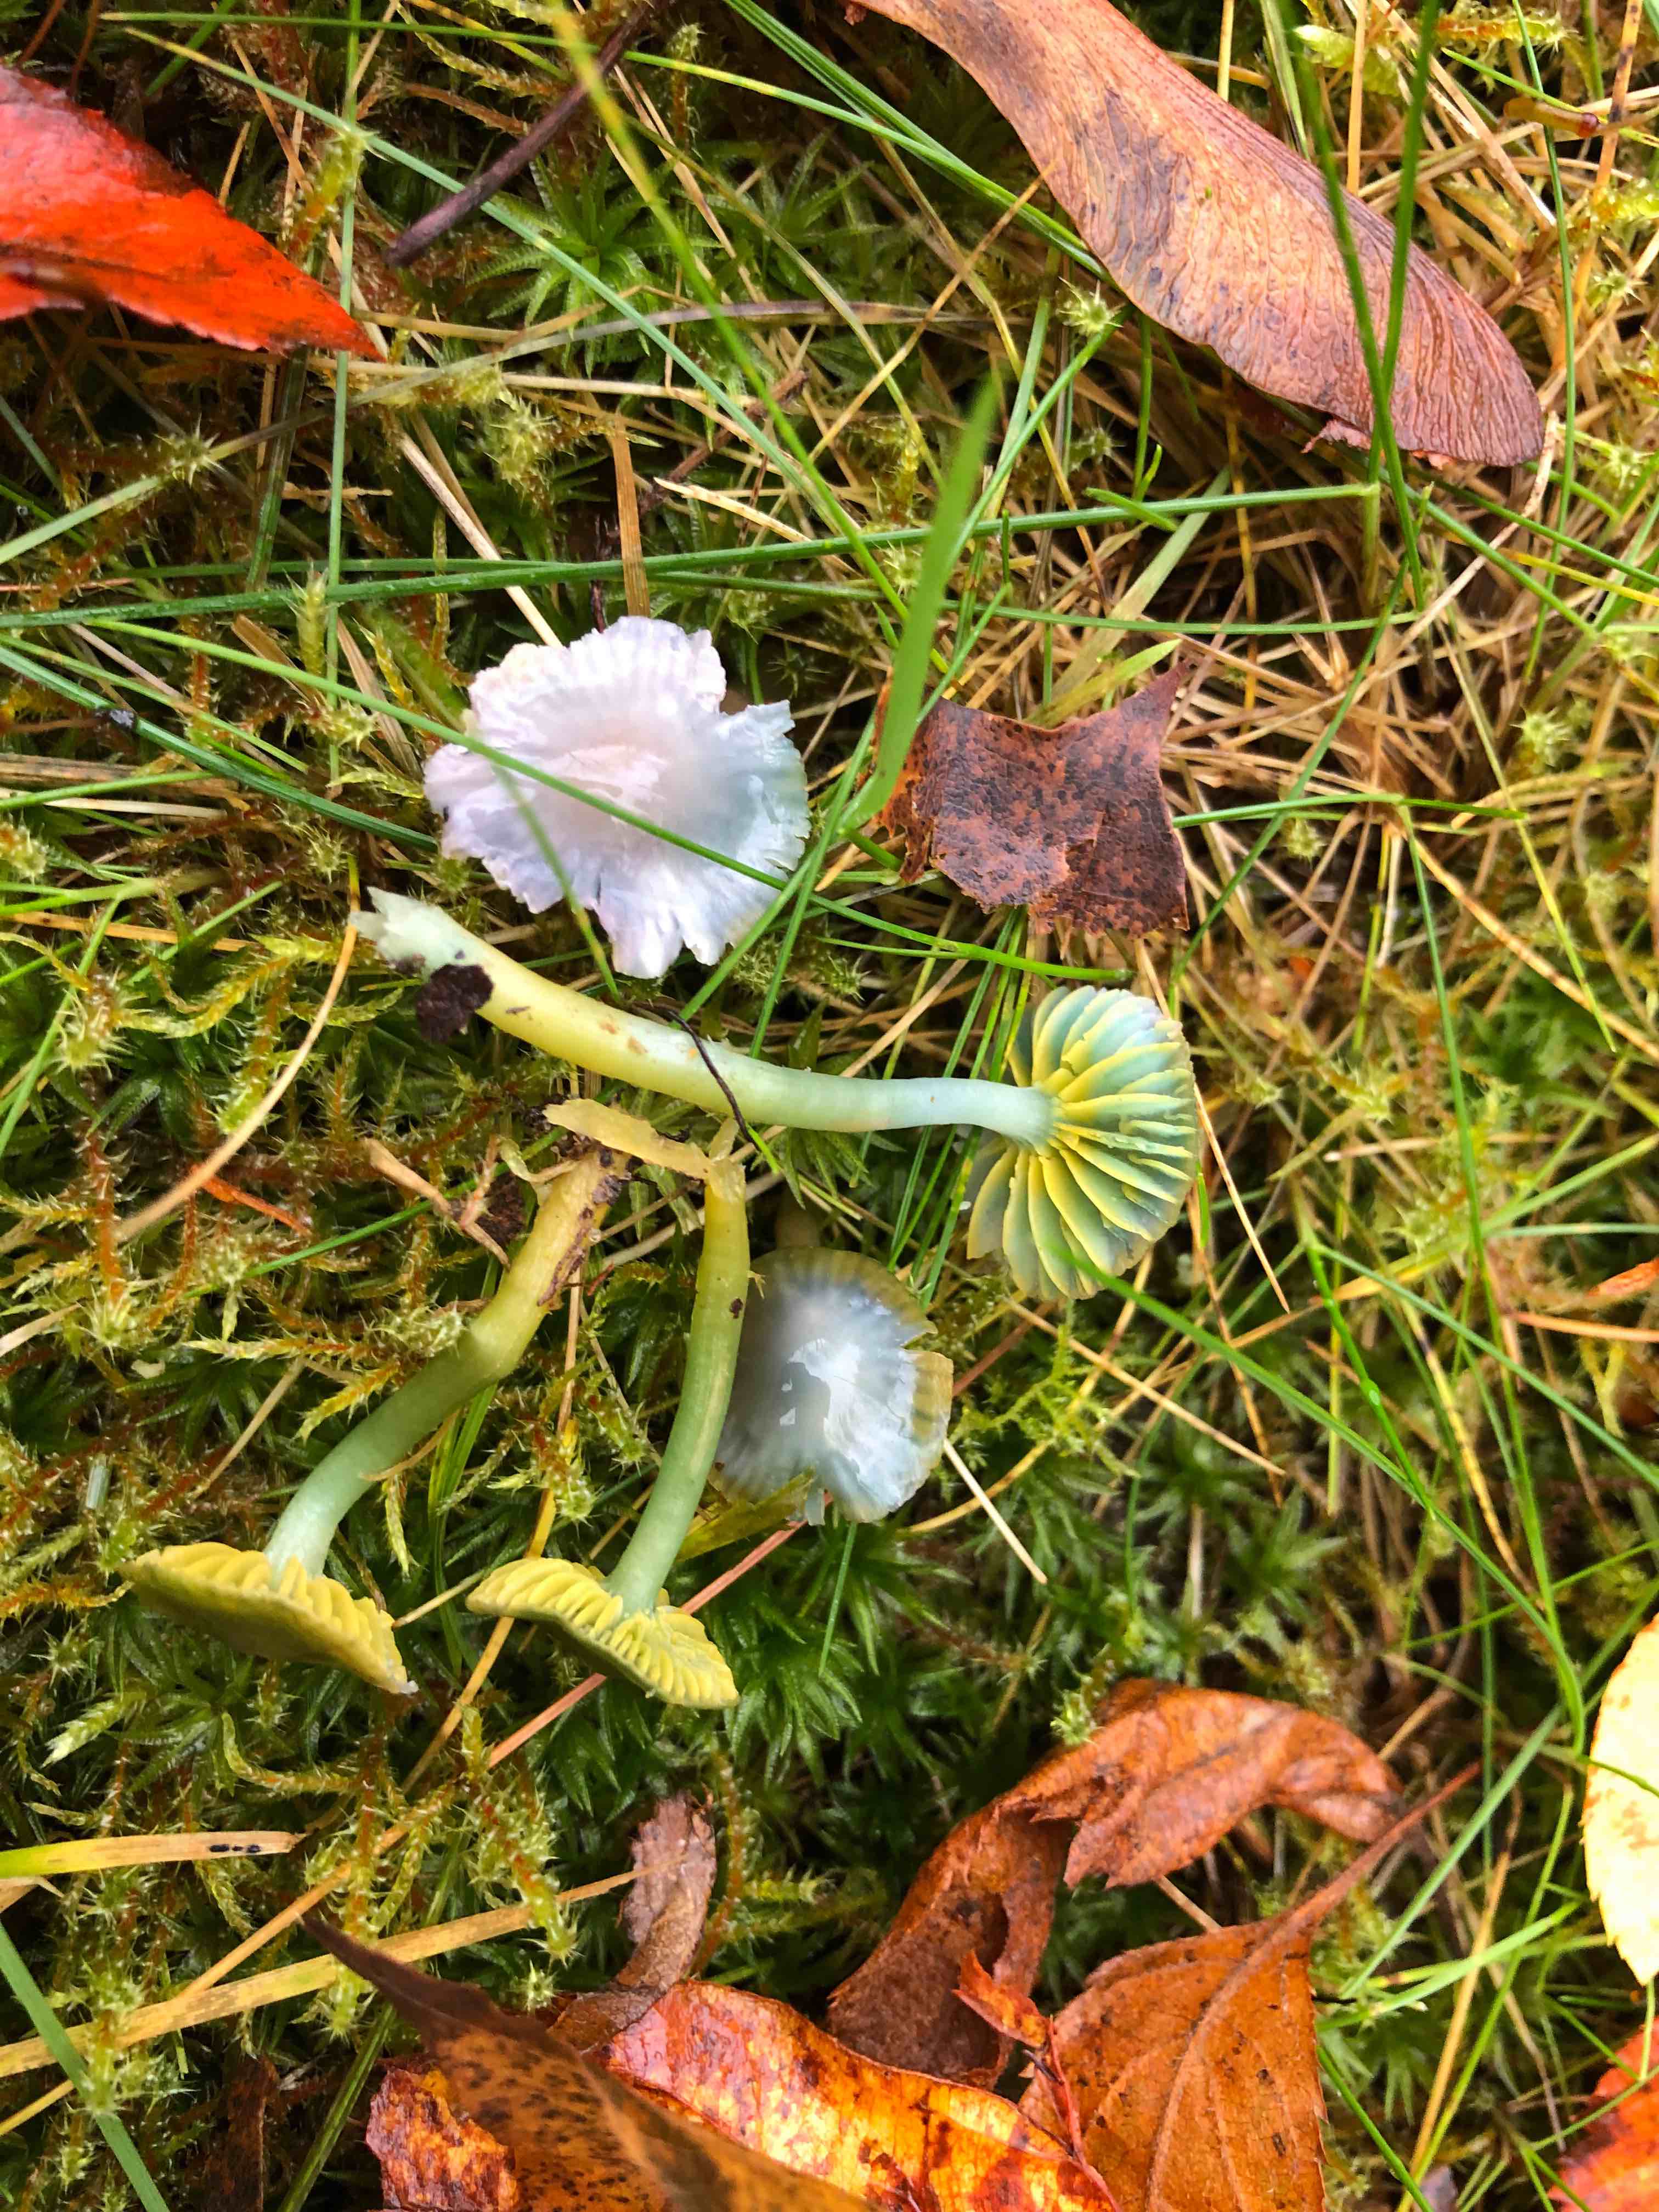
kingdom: Fungi
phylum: Basidiomycota
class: Agaricomycetes
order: Agaricales
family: Hygrophoraceae
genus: Gliophorus
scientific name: Gliophorus psittacinus
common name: papegøje-vokshat
